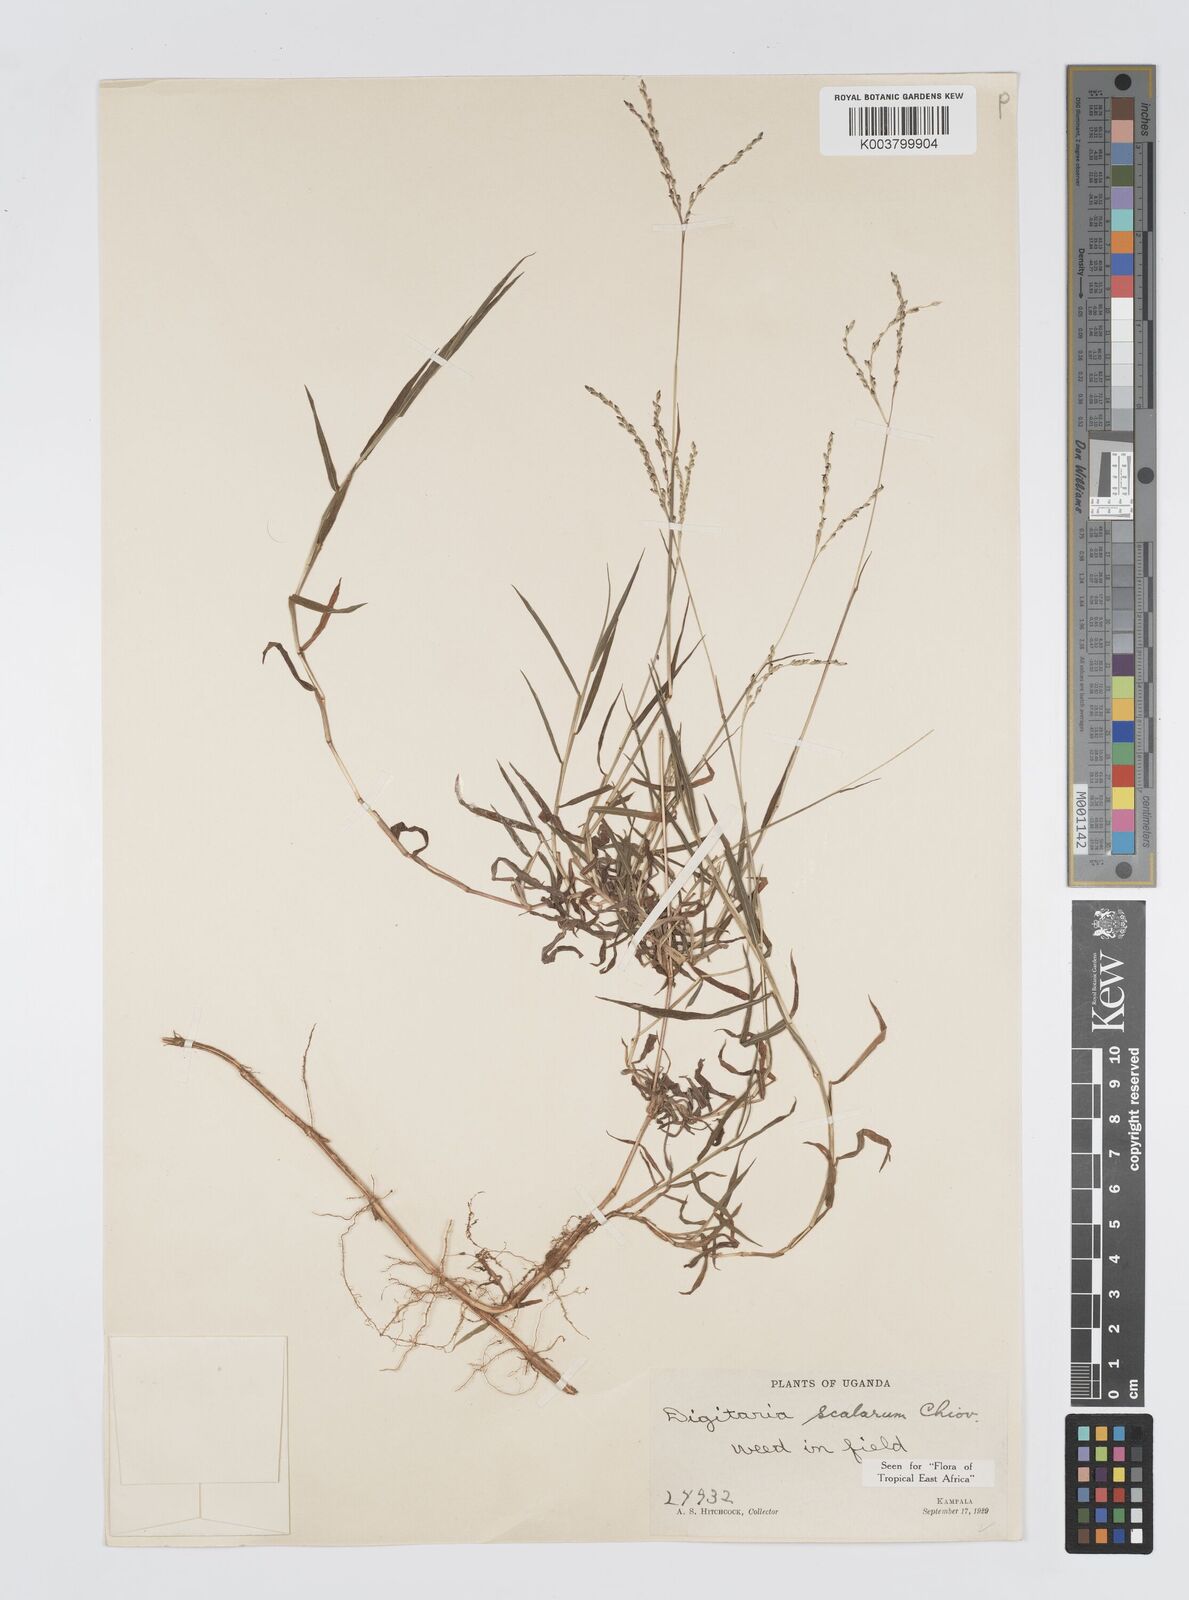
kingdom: Plantae
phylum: Tracheophyta
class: Liliopsida
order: Poales
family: Poaceae
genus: Digitaria
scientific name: Digitaria abyssinica
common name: African couchgrass
